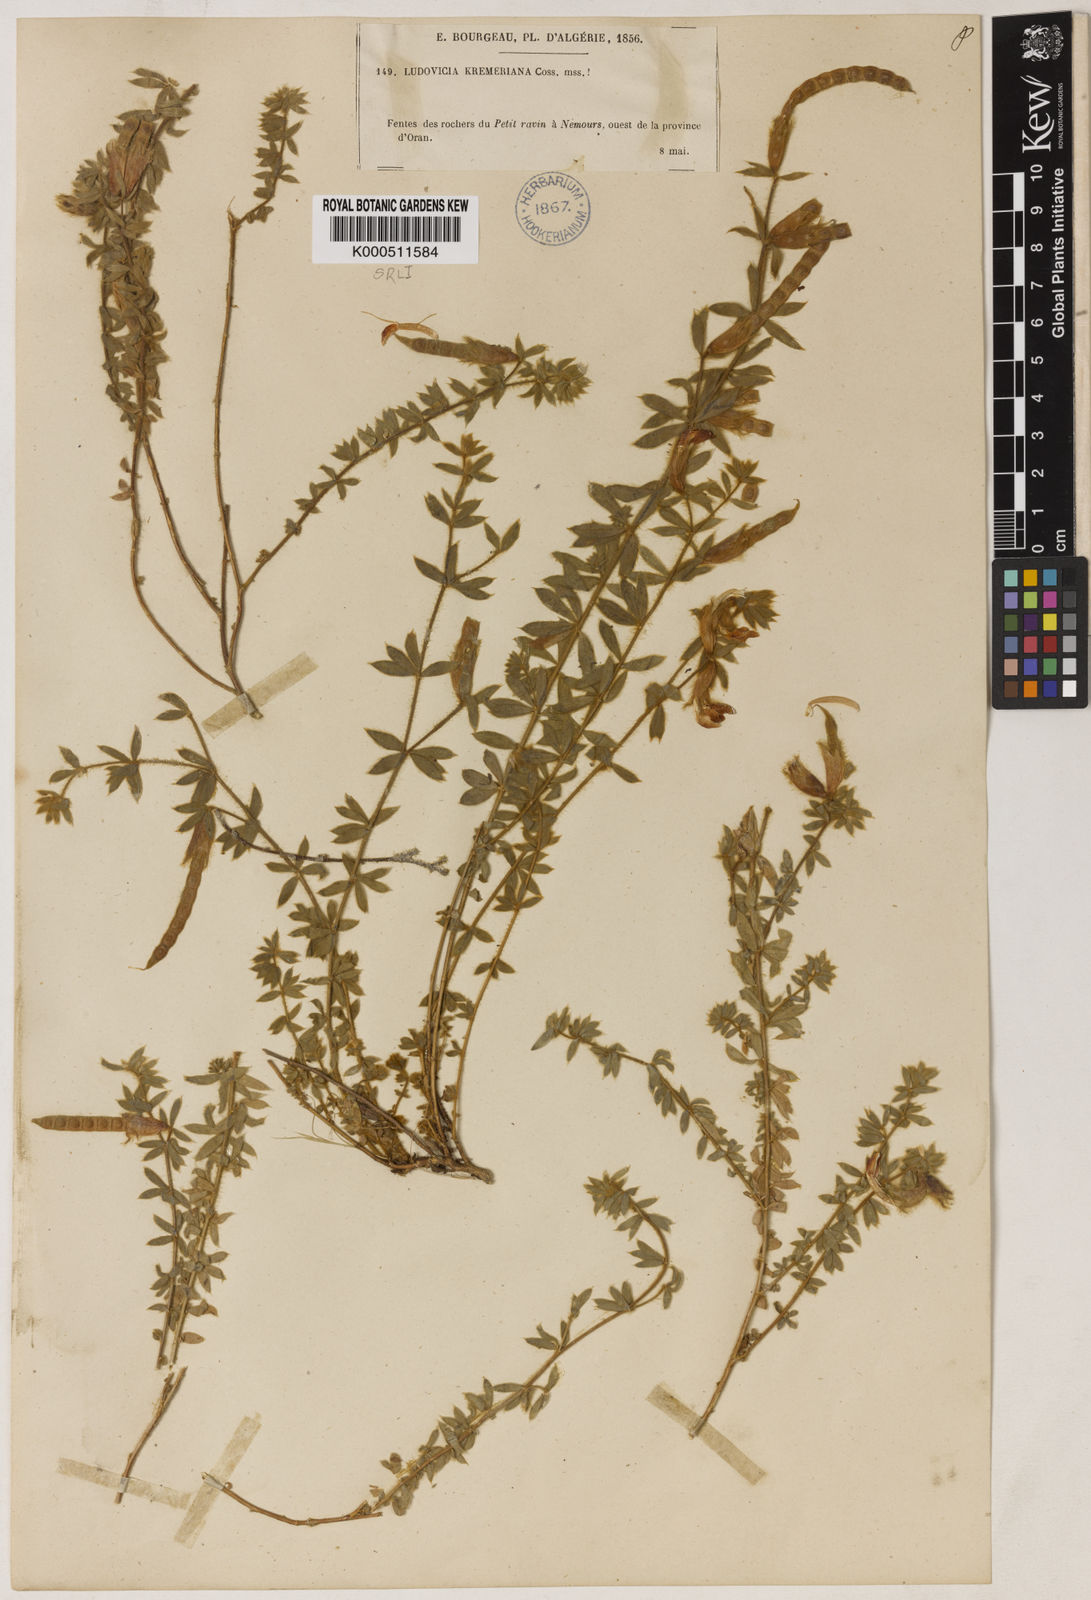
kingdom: Plantae
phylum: Tracheophyta
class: Magnoliopsida
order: Fabales
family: Fabaceae
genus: Hammatolobium
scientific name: Hammatolobium
